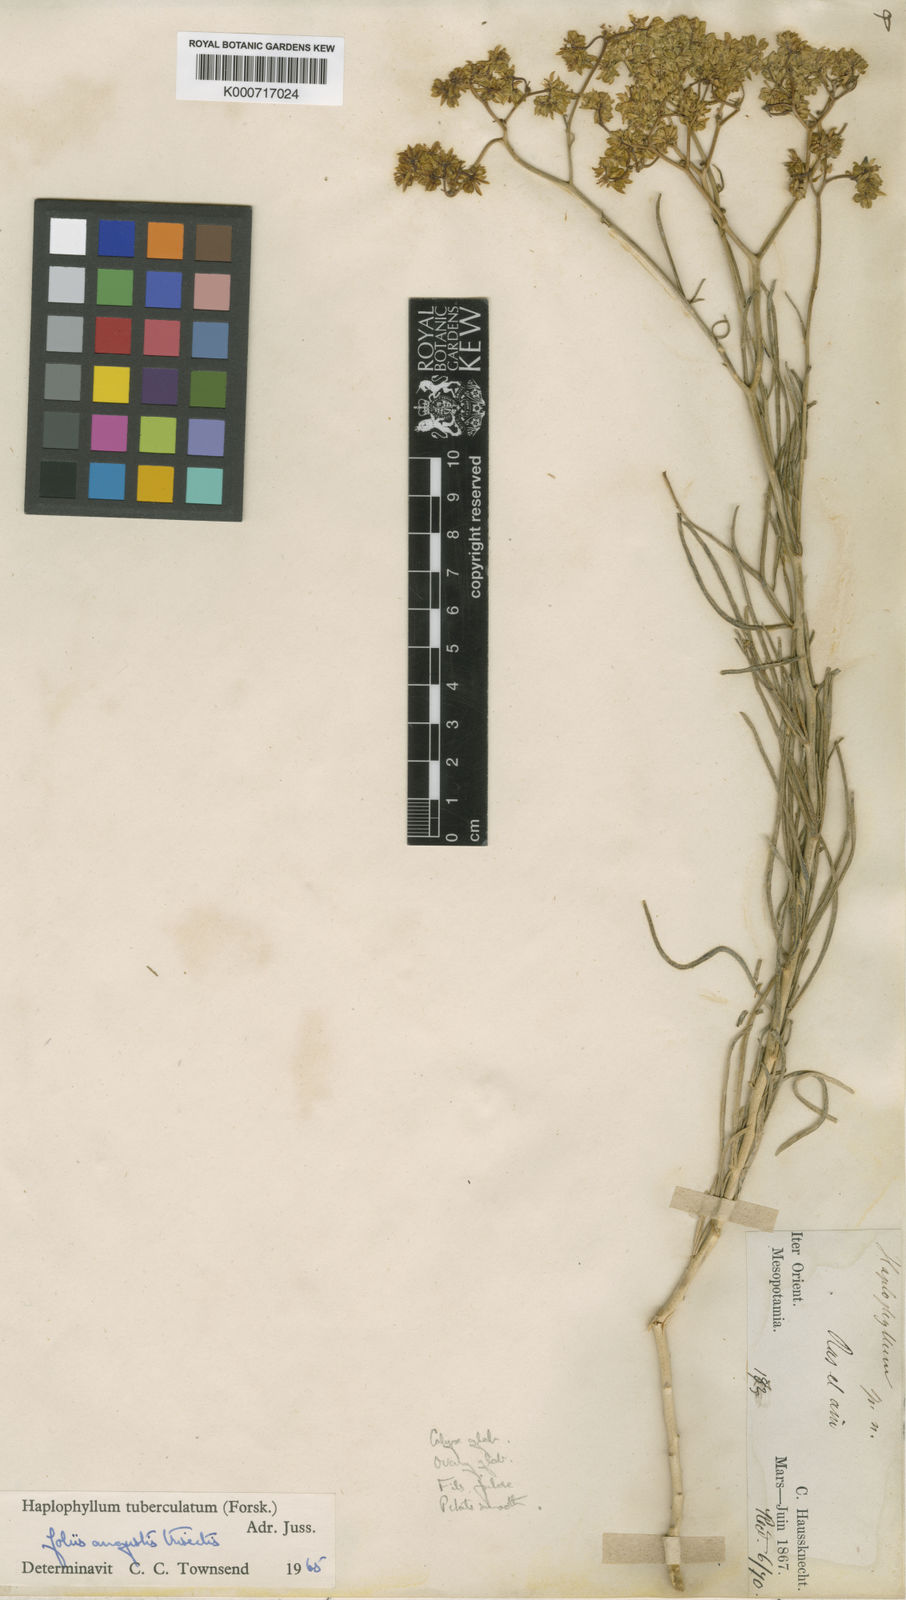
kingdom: Plantae
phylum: Tracheophyta
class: Magnoliopsida
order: Sapindales
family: Rutaceae
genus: Haplophyllum
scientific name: Haplophyllum tuberculatum
